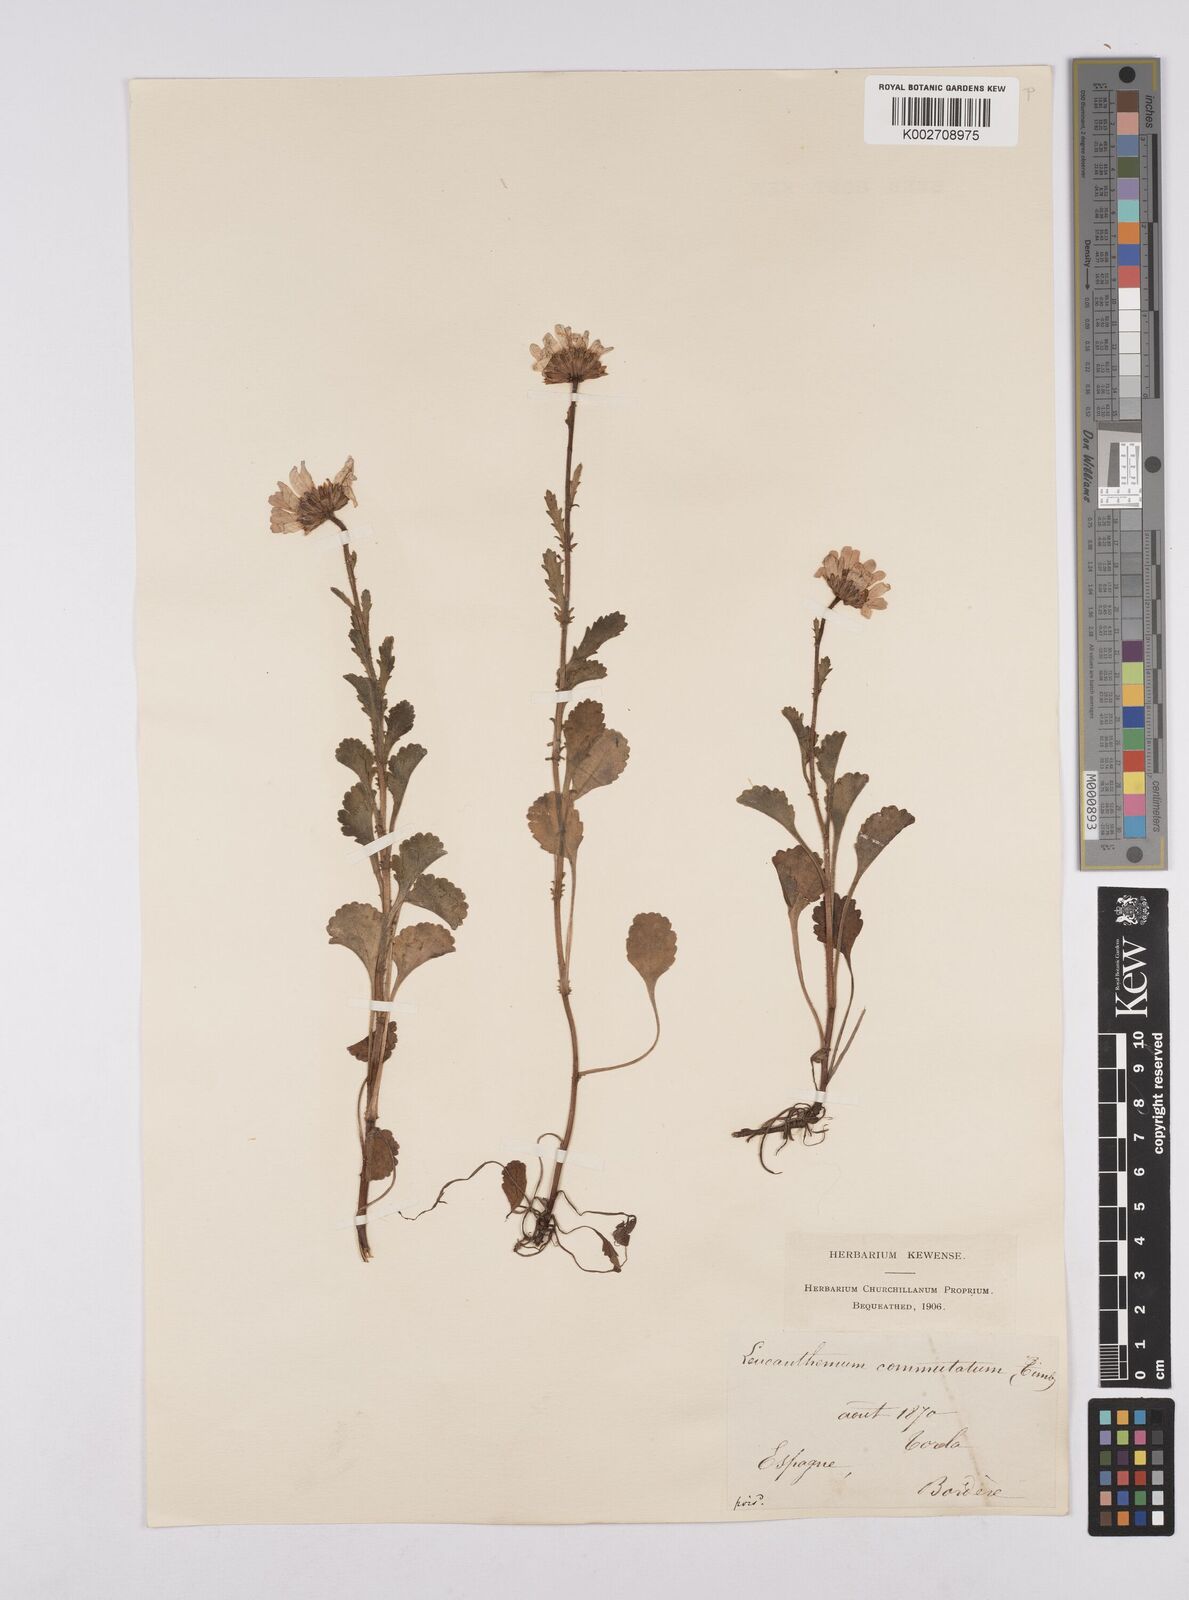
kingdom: Plantae
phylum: Tracheophyta
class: Magnoliopsida
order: Asterales
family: Asteraceae
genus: Leucanthemum
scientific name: Leucanthemum vulgare
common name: Oxeye daisy
